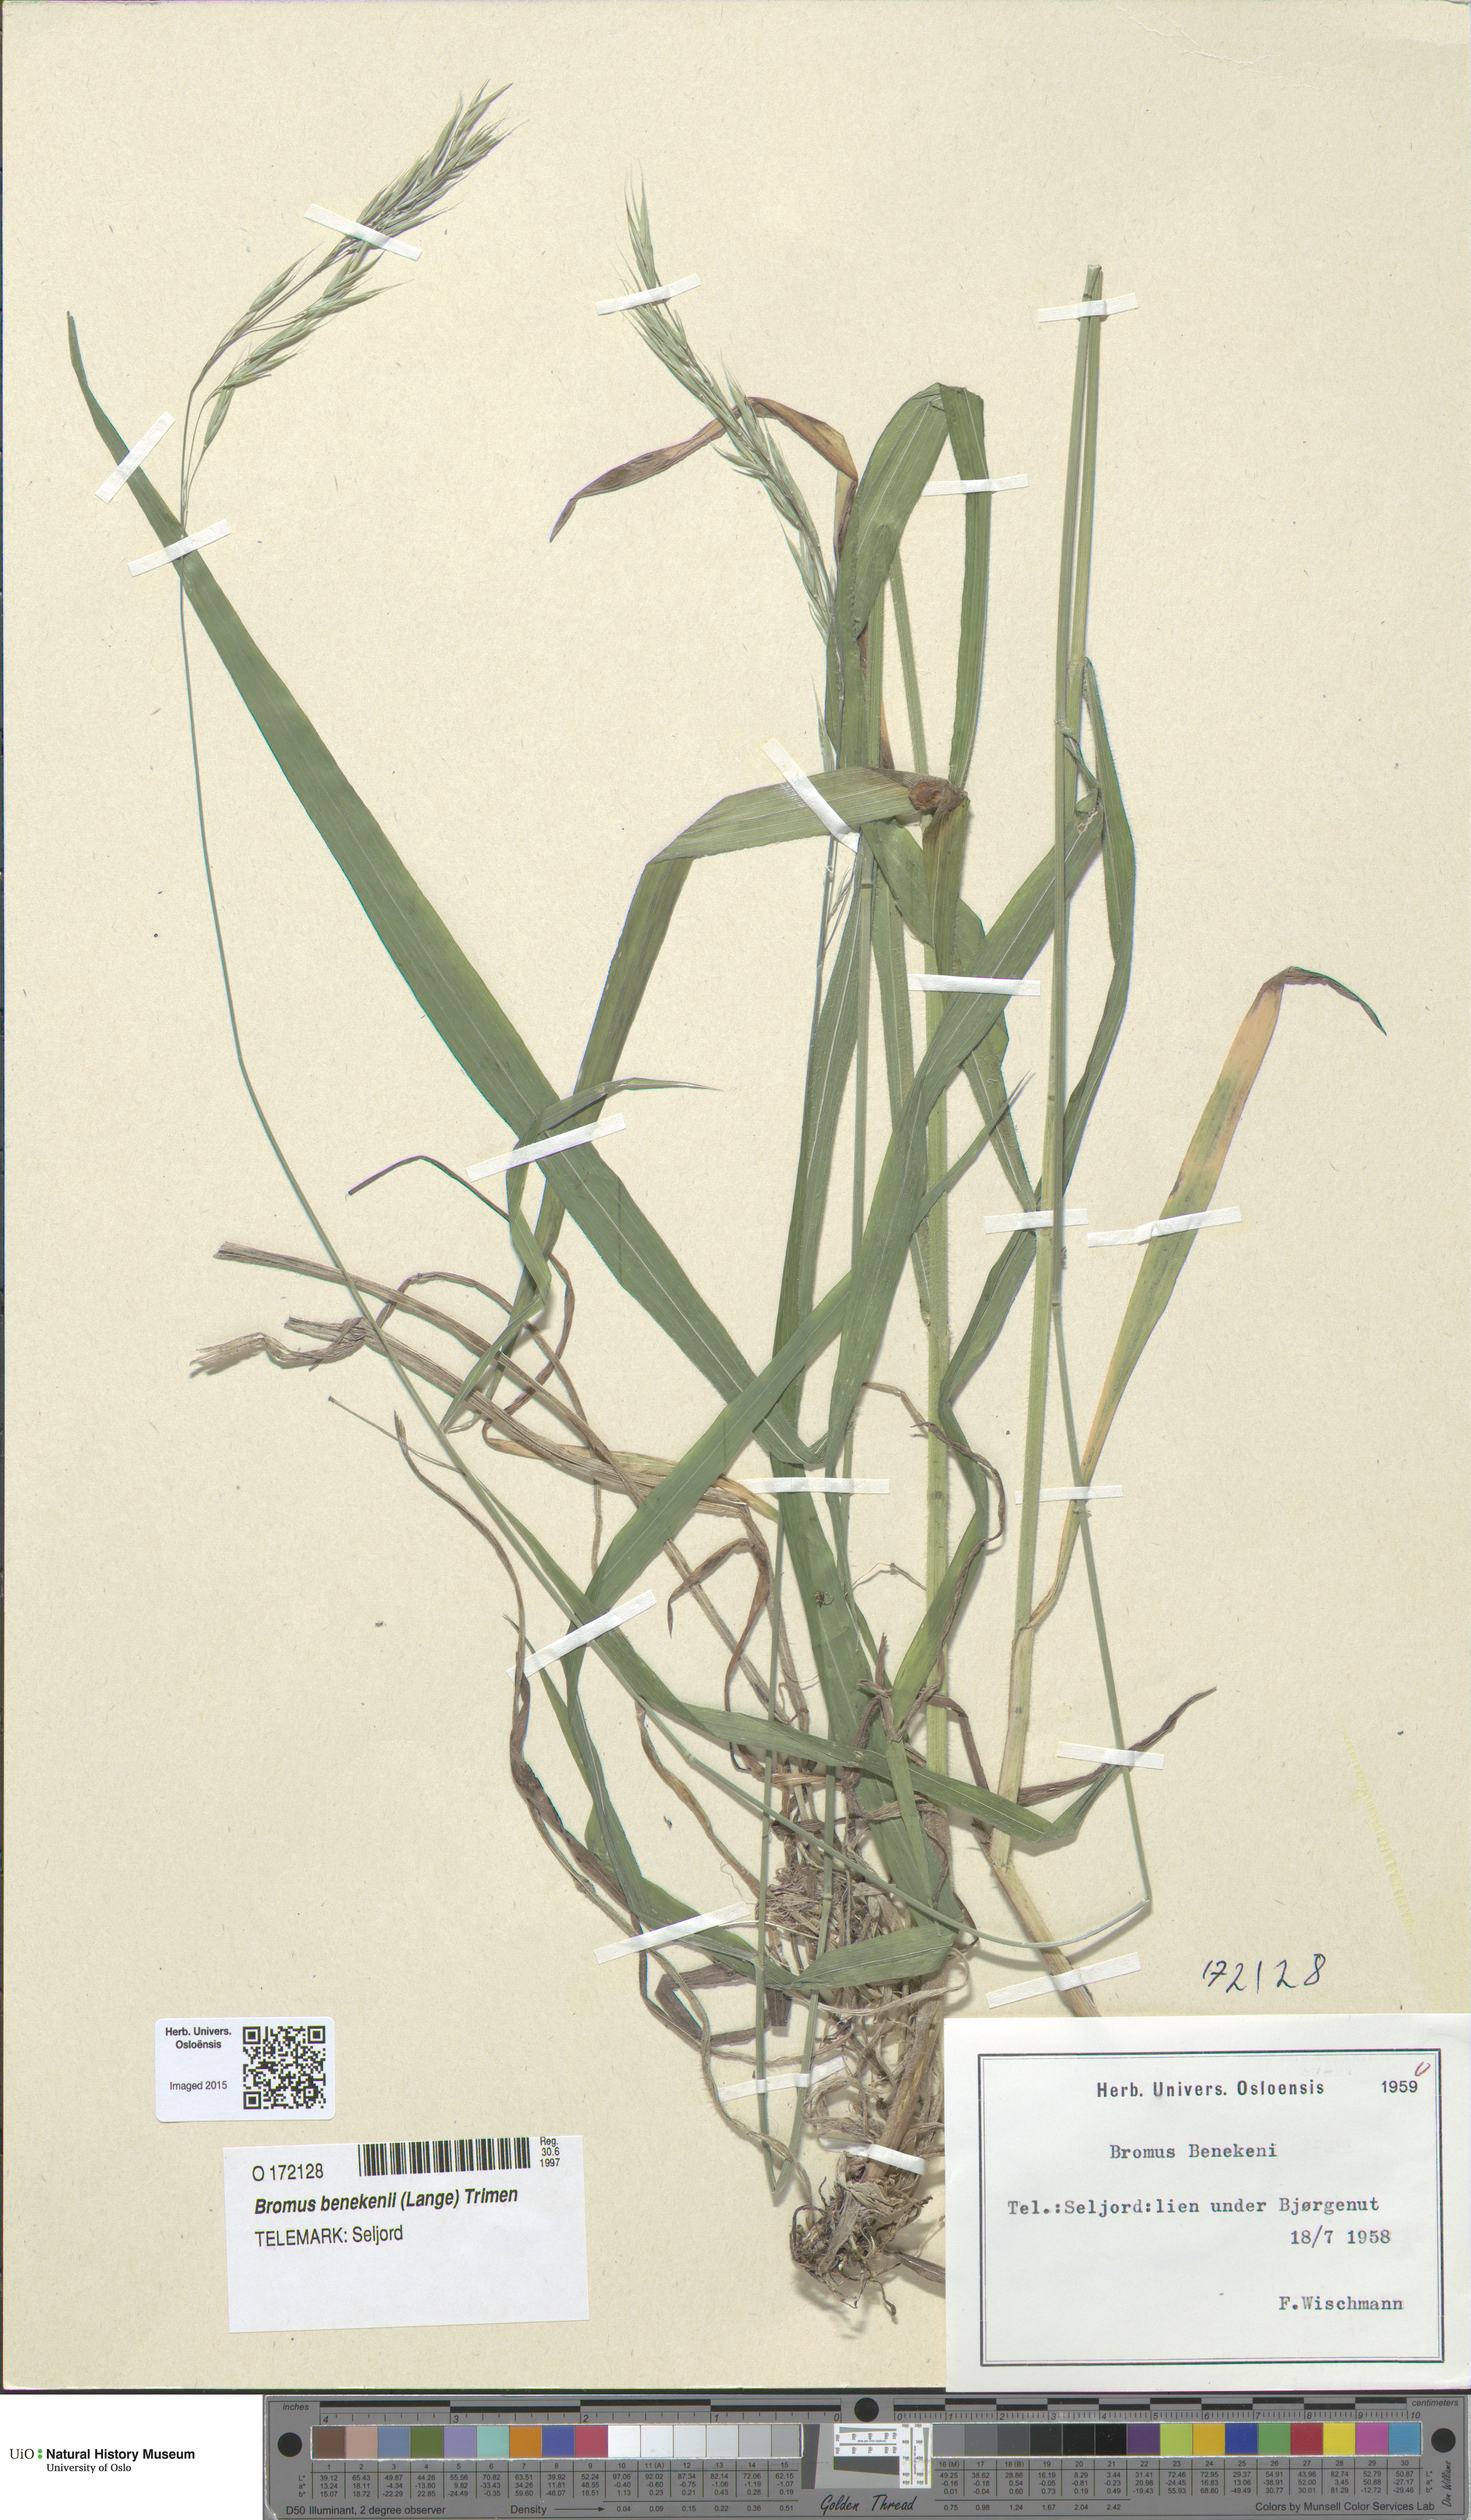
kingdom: Plantae
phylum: Tracheophyta
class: Liliopsida
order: Poales
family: Poaceae
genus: Bromus
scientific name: Bromus benekenii
